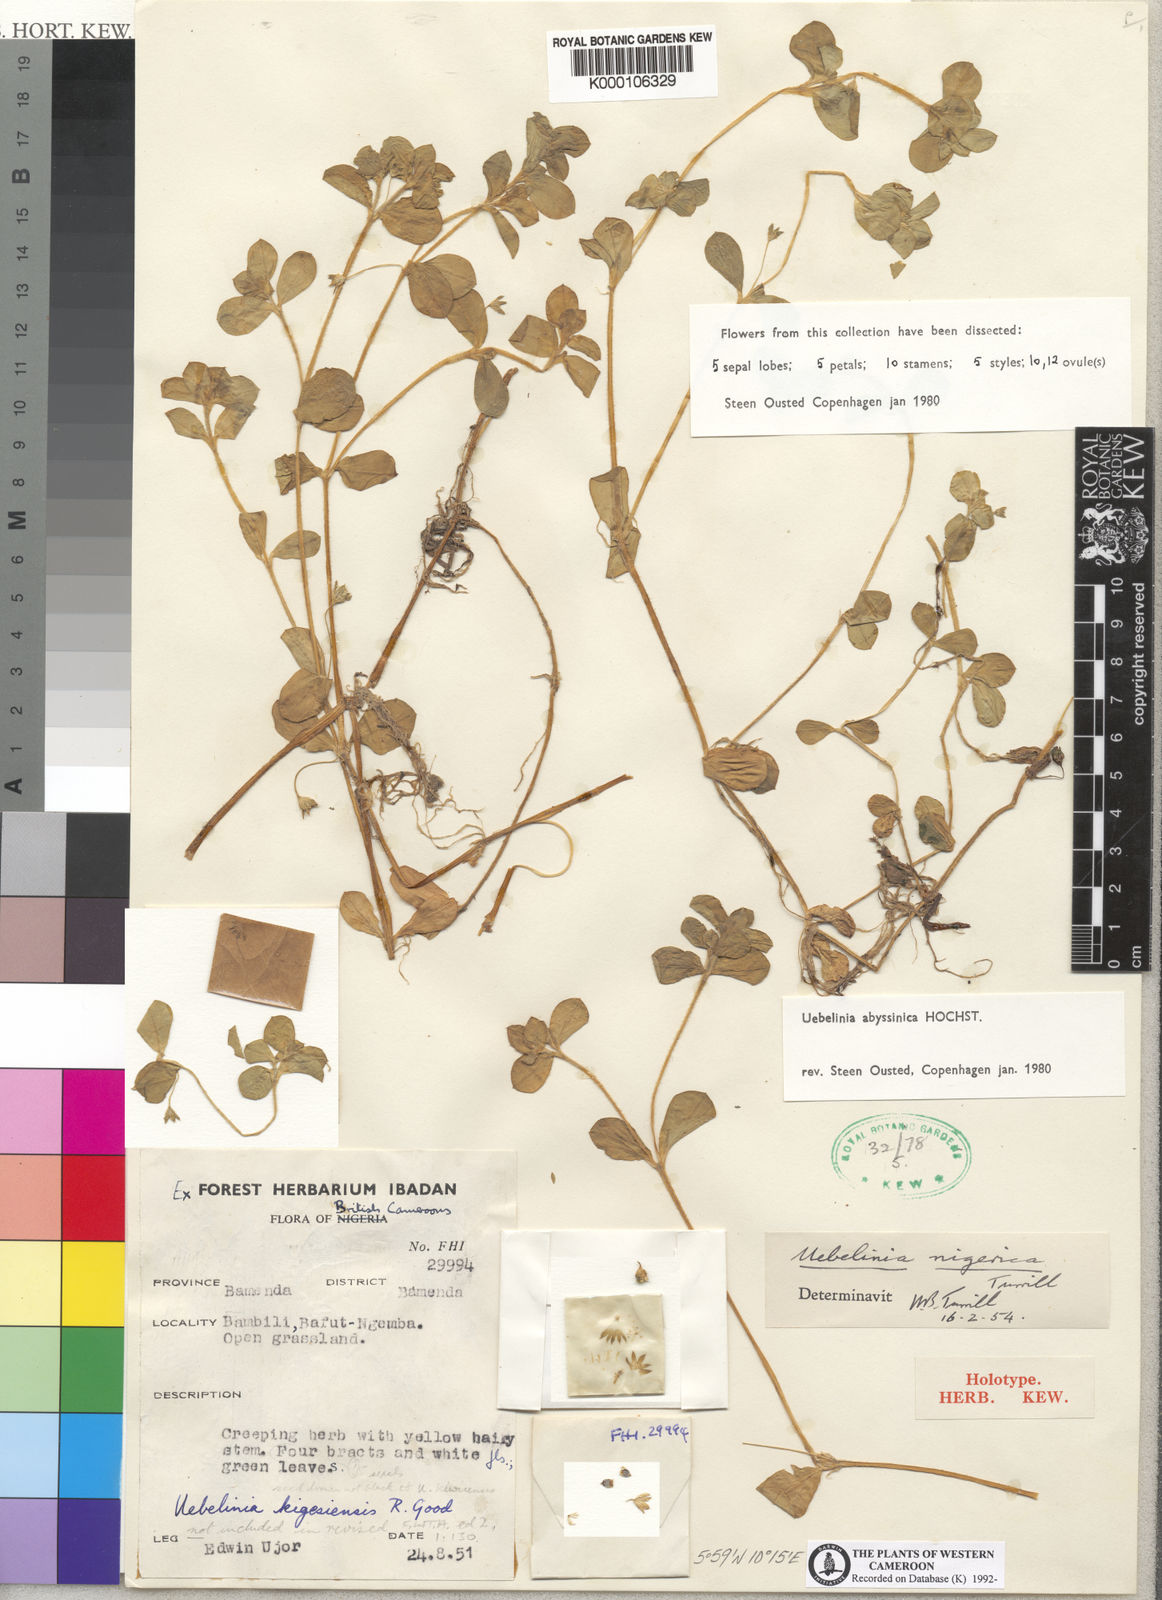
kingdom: Plantae
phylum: Tracheophyta
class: Magnoliopsida
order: Caryophyllales
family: Caryophyllaceae
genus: Silene
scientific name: Silene abyssinica
